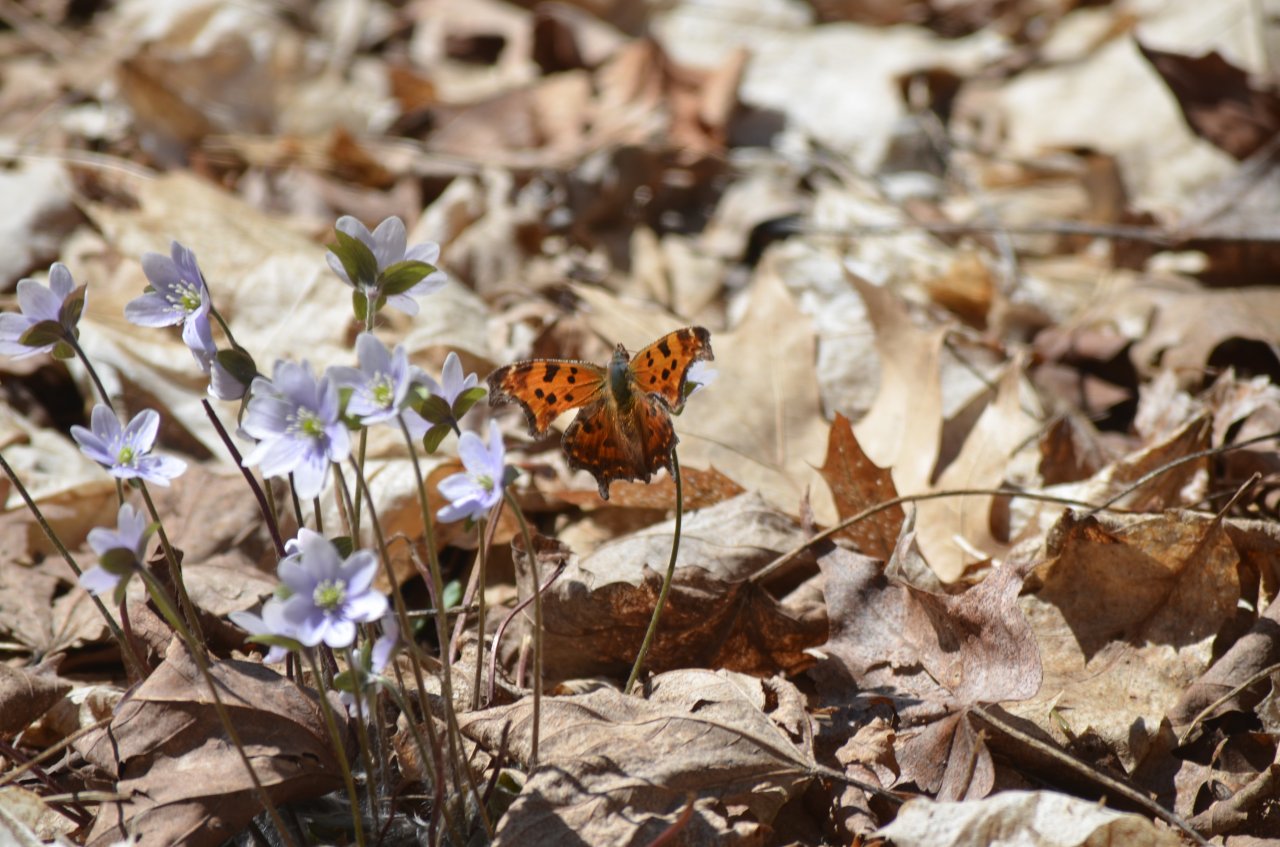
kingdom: Animalia
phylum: Arthropoda
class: Insecta
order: Lepidoptera
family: Nymphalidae
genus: Polygonia
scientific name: Polygonia comma
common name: Eastern Comma
